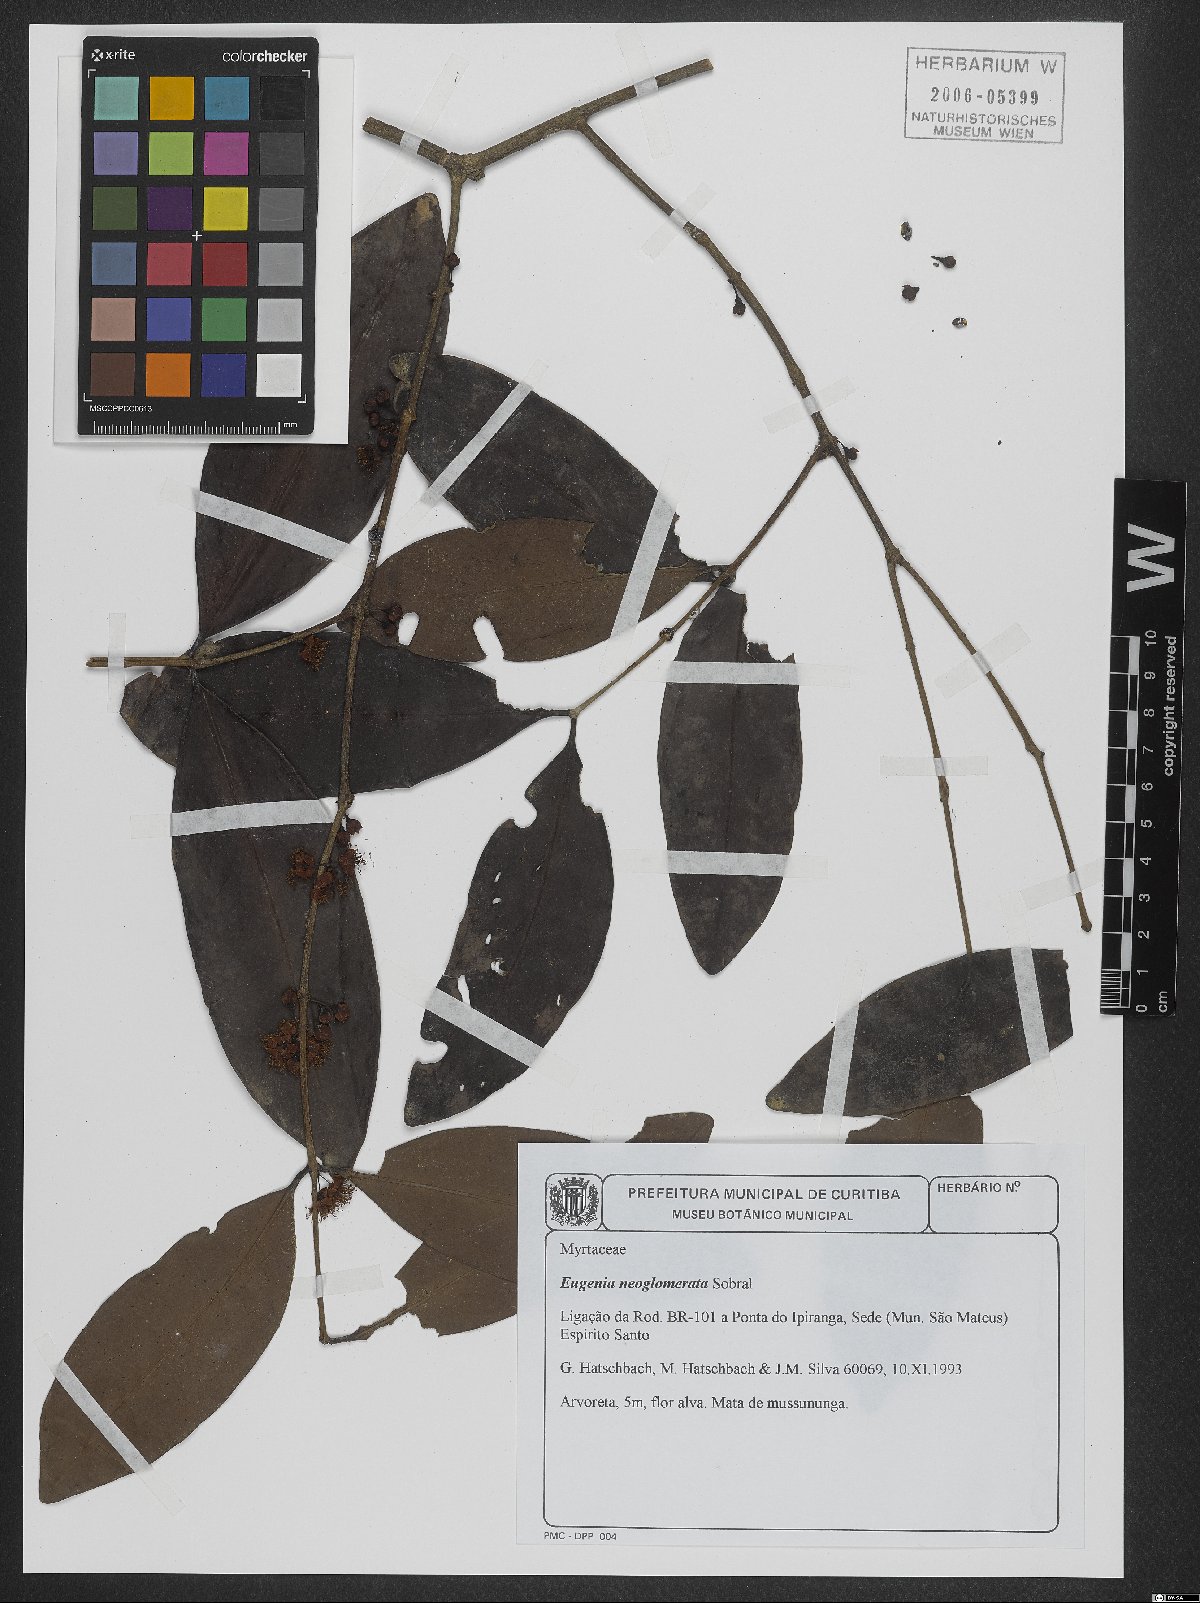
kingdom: Plantae
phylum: Tracheophyta
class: Magnoliopsida
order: Myrtales
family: Myrtaceae
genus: Eugenia
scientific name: Eugenia neoglomerata
